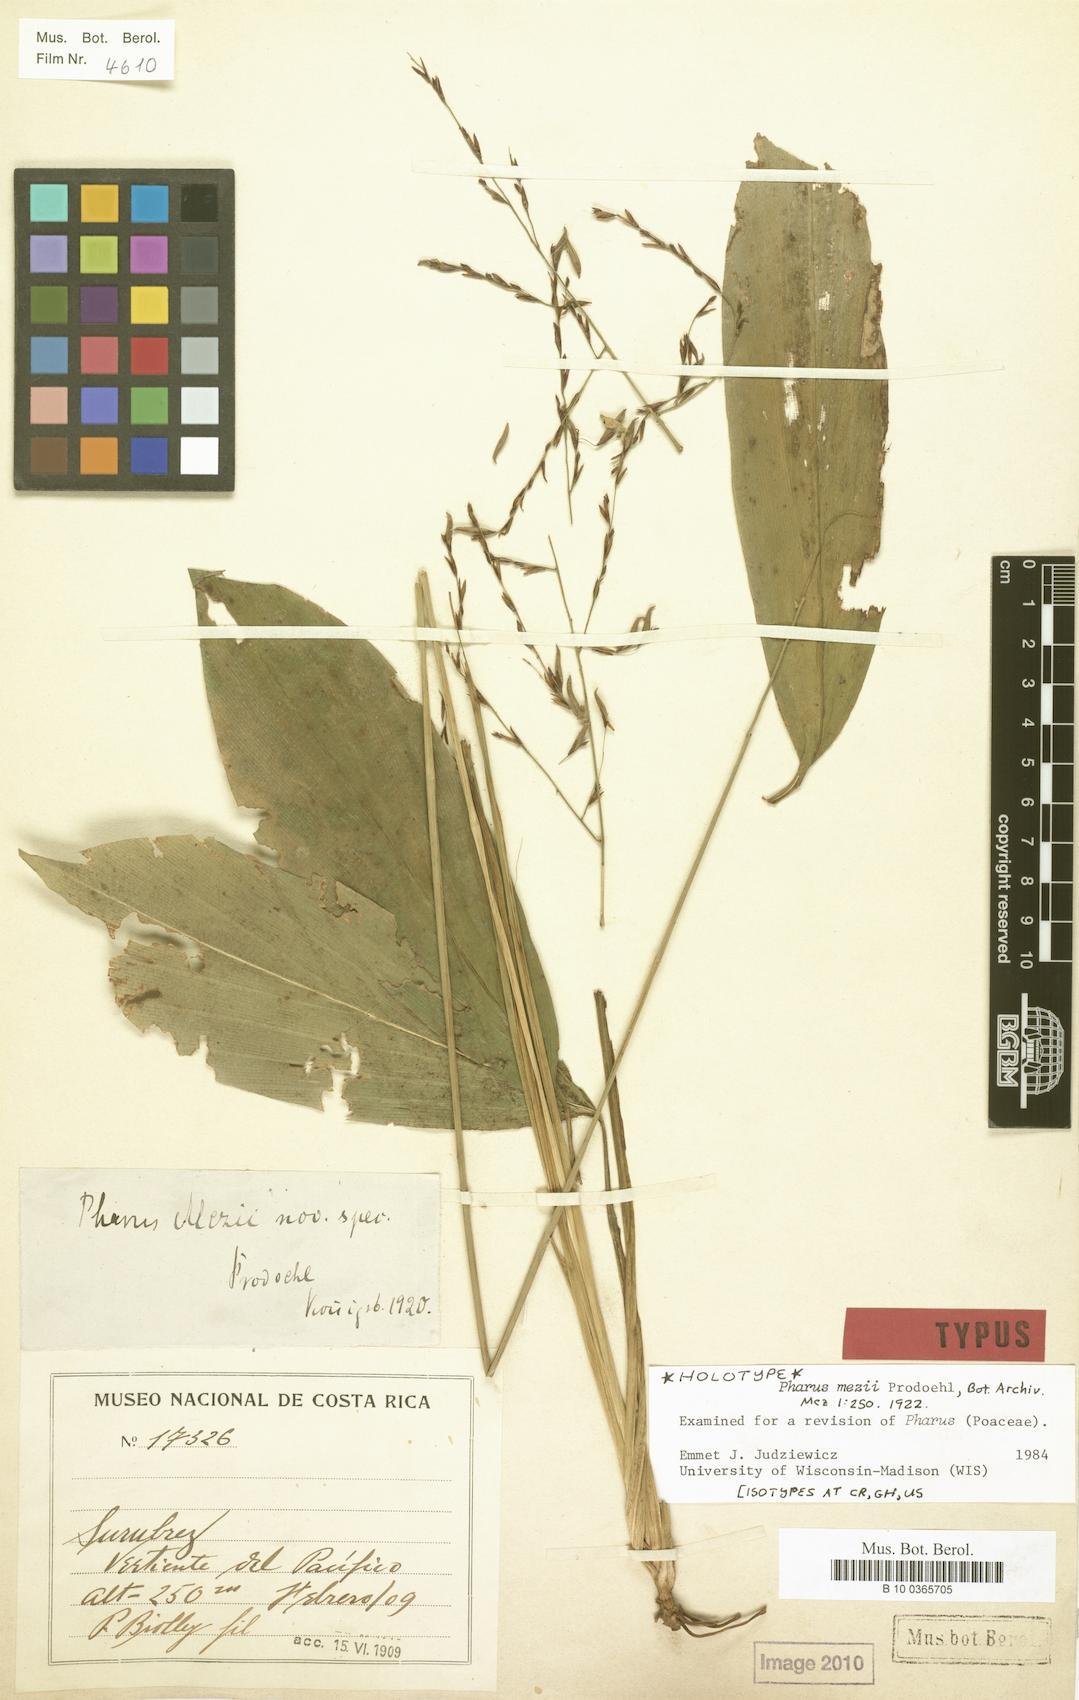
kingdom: Plantae
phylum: Tracheophyta
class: Liliopsida
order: Poales
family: Poaceae
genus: Pharus
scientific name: Pharus mezii
